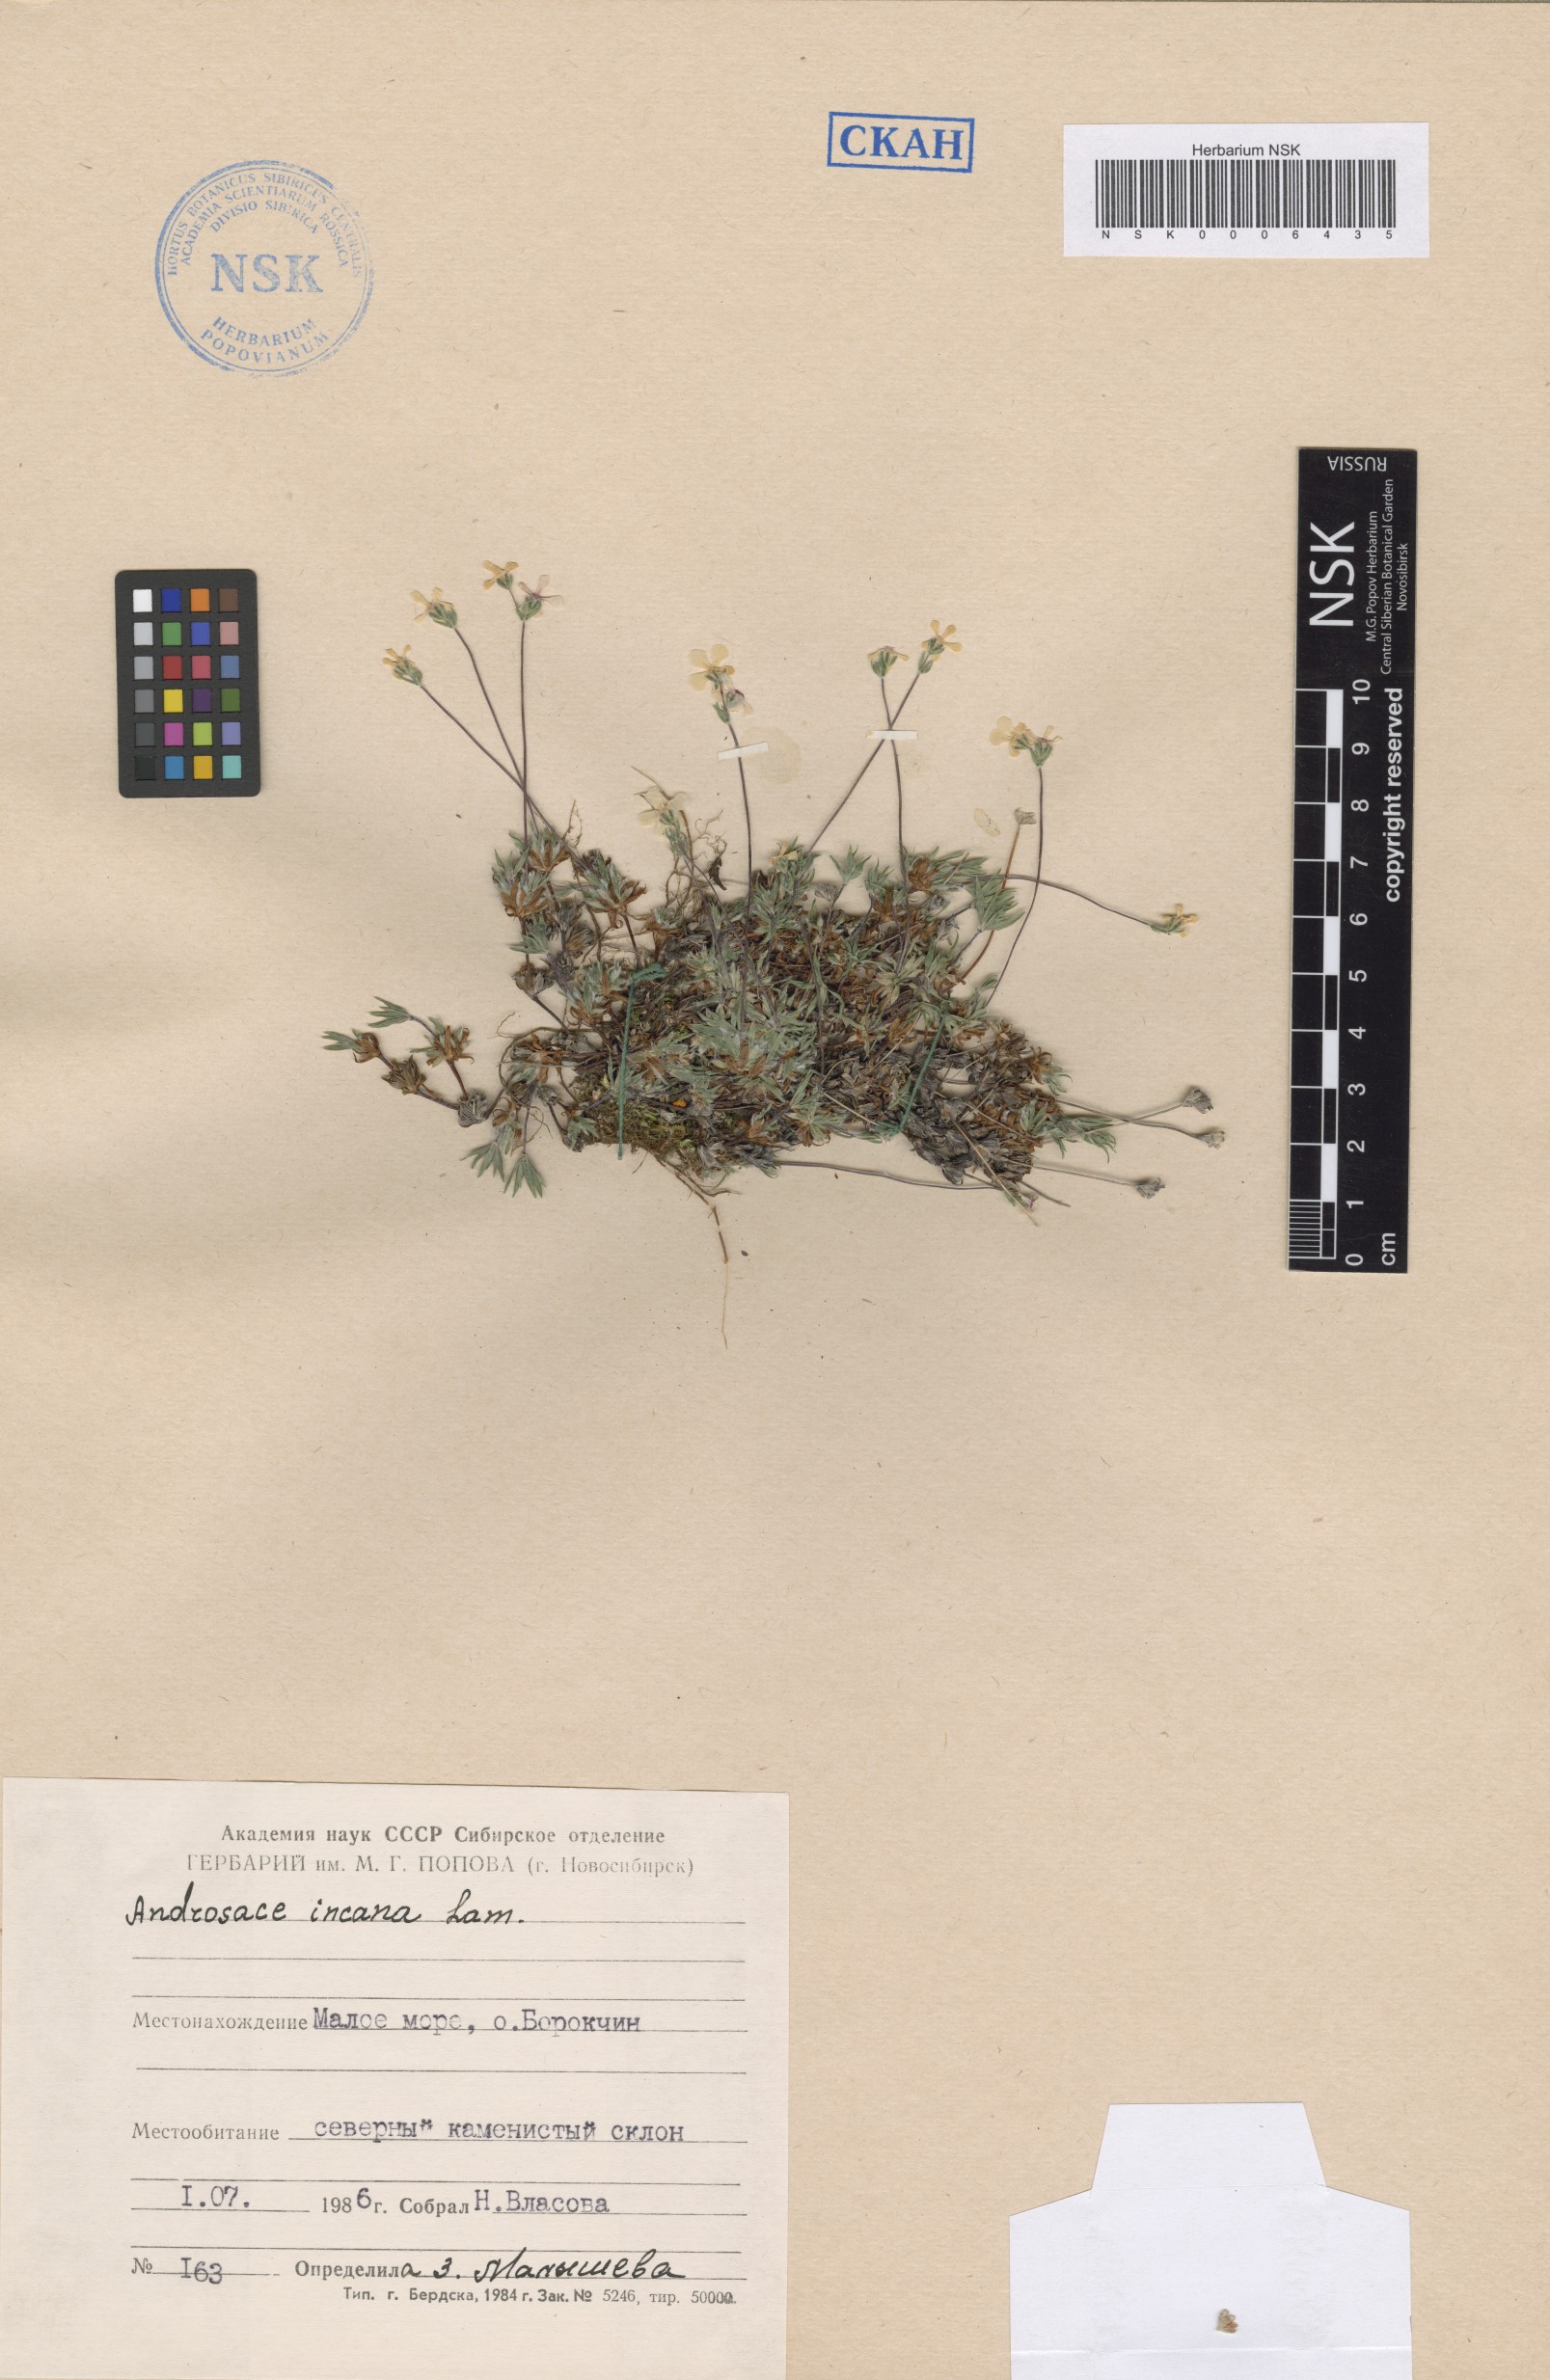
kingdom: Plantae
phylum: Tracheophyta
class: Magnoliopsida
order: Ericales
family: Primulaceae
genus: Androsace
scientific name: Androsace incana
